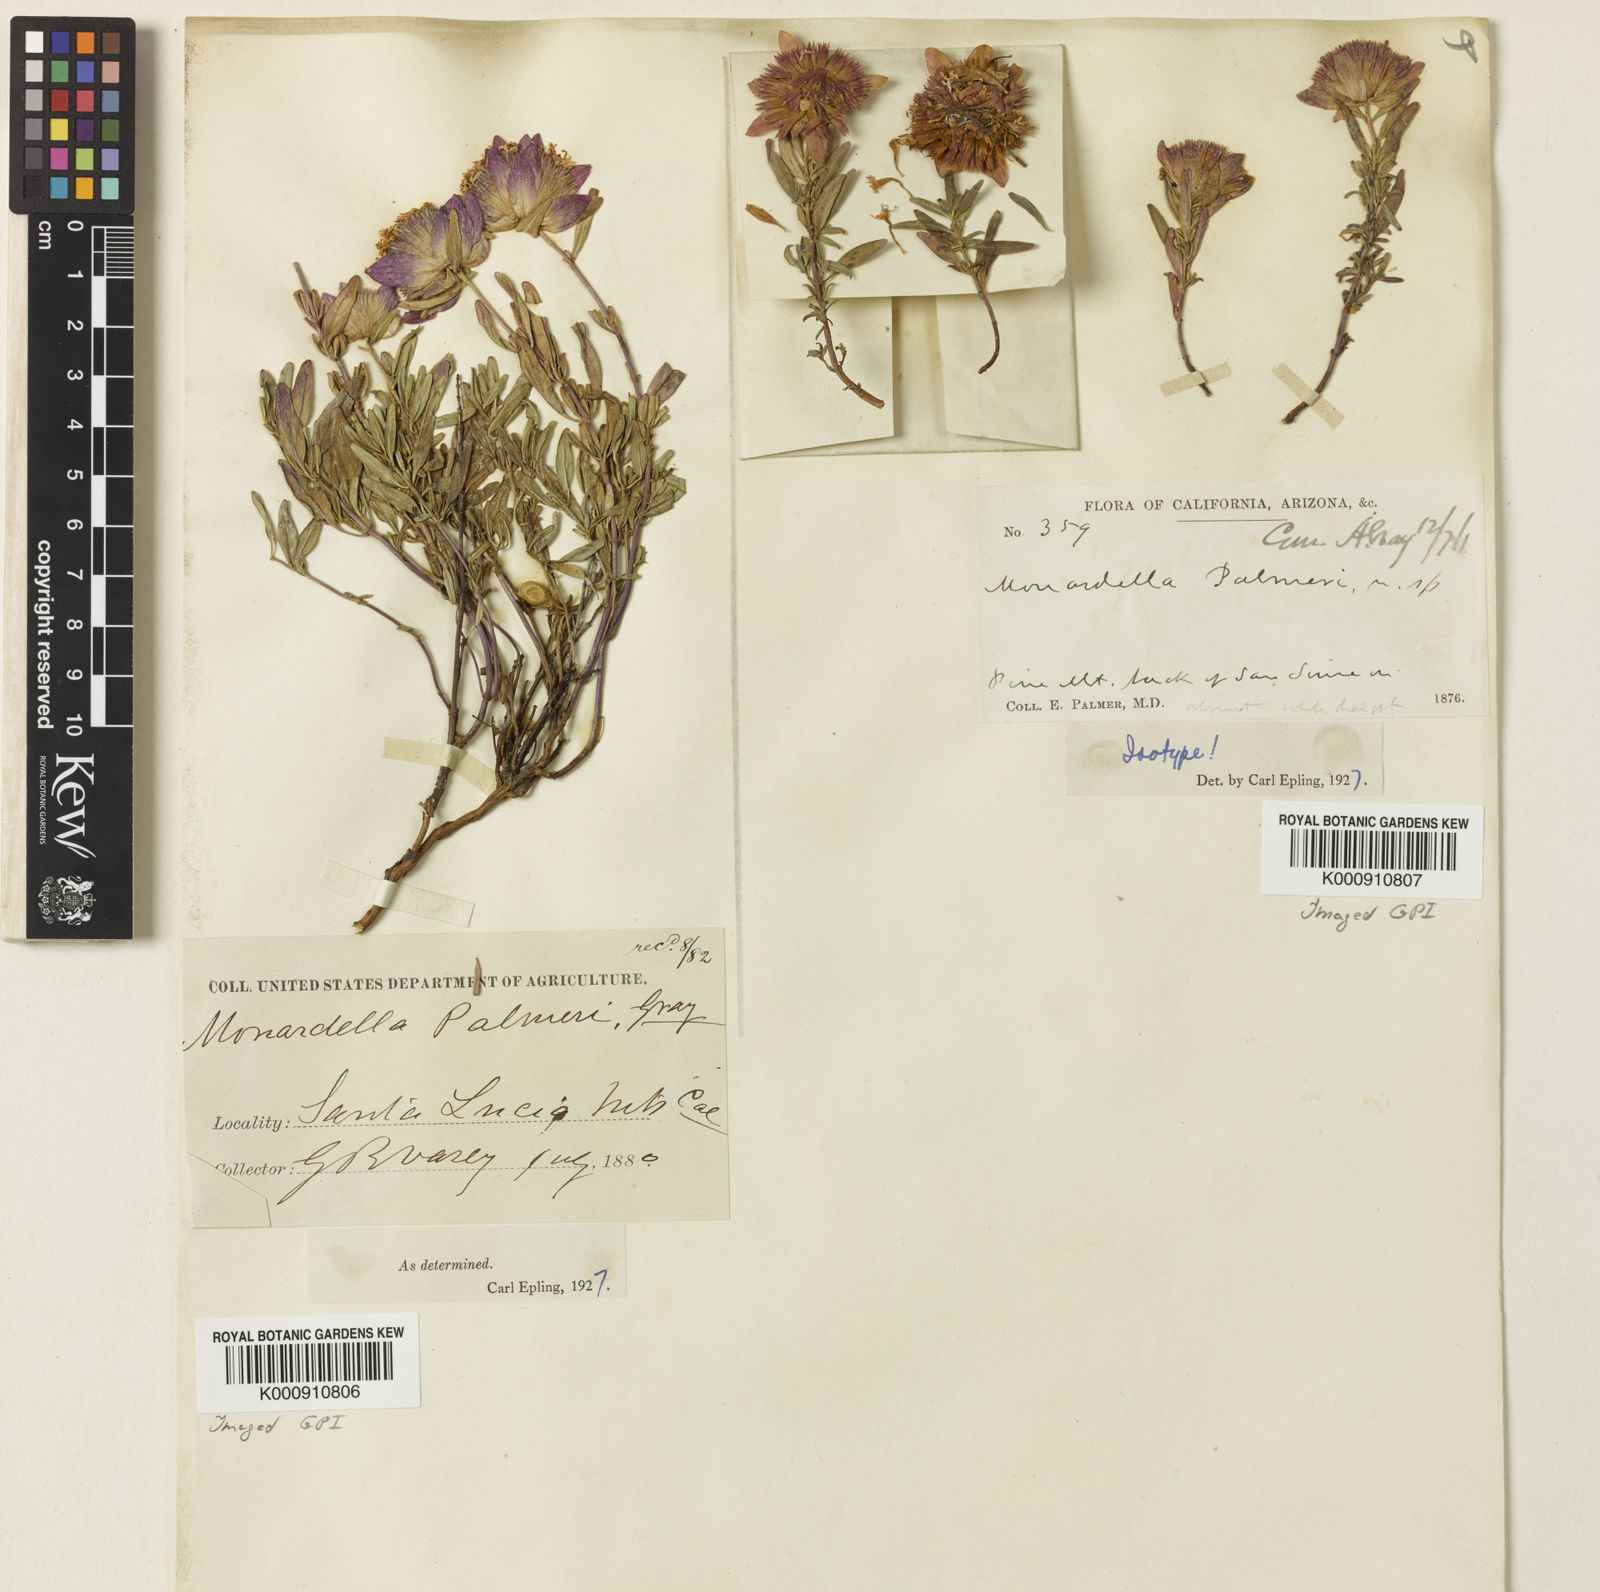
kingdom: Plantae
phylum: Tracheophyta
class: Magnoliopsida
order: Lamiales
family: Lamiaceae
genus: Monardella
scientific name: Monardella palmeri
